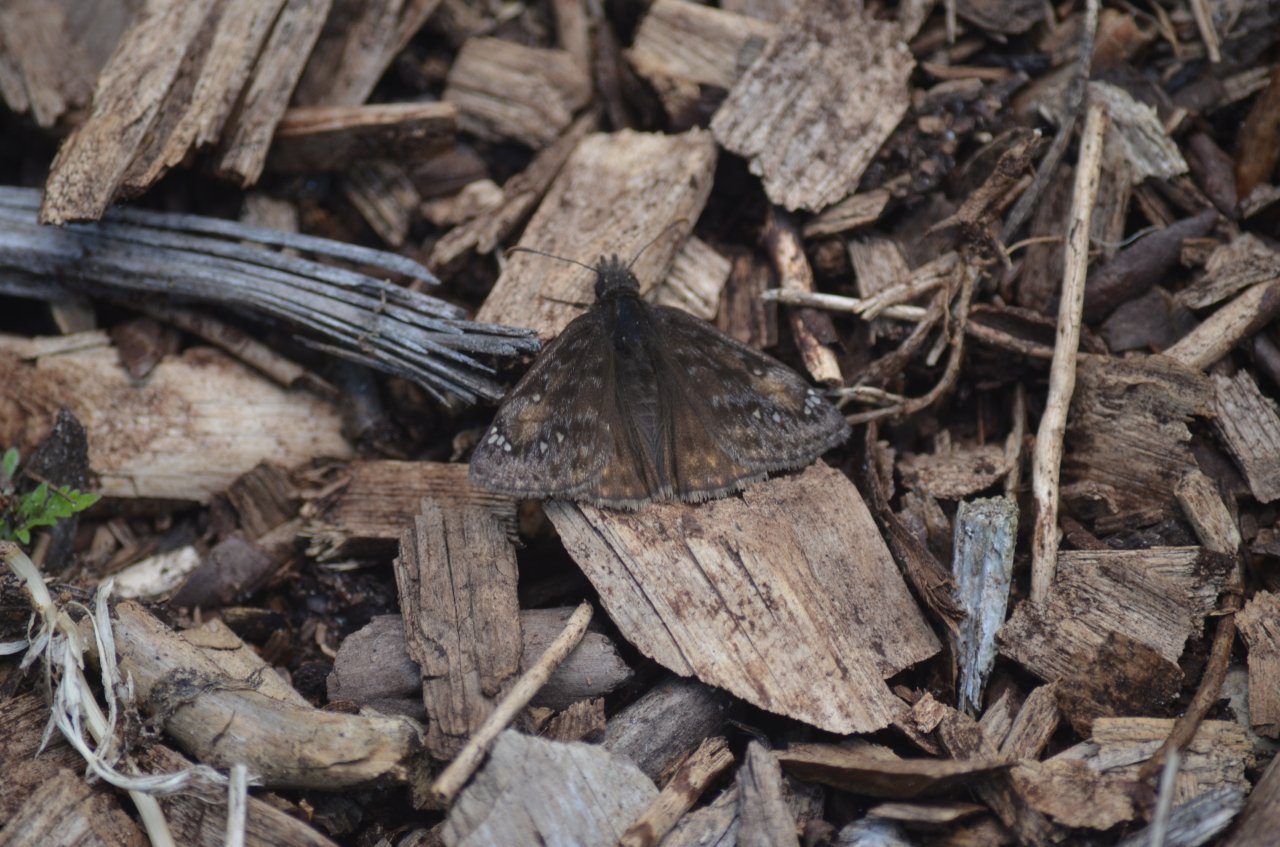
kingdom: Animalia
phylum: Arthropoda
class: Insecta
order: Lepidoptera
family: Hesperiidae
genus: Gesta
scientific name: Gesta
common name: Juvenal's Duskywing
